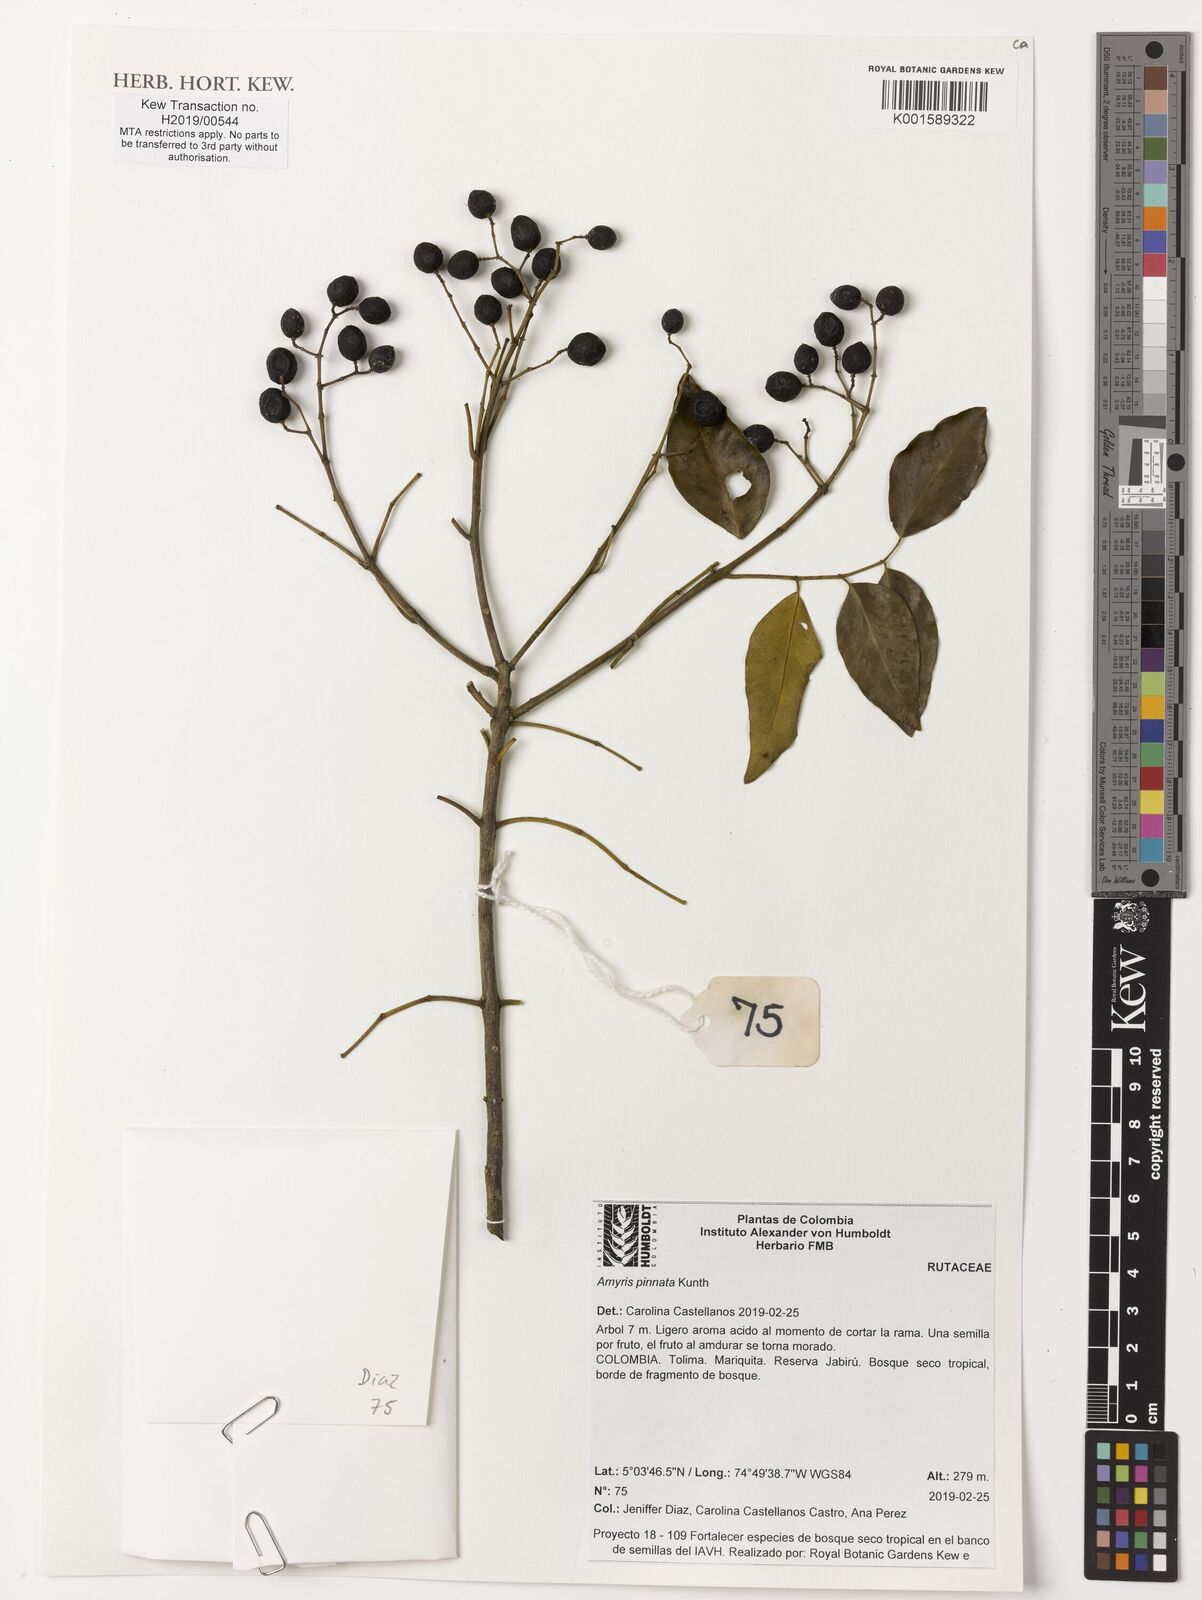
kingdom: Plantae
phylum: Tracheophyta
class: Magnoliopsida
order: Sapindales
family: Rutaceae
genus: Amyris
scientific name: Amyris pinnata
